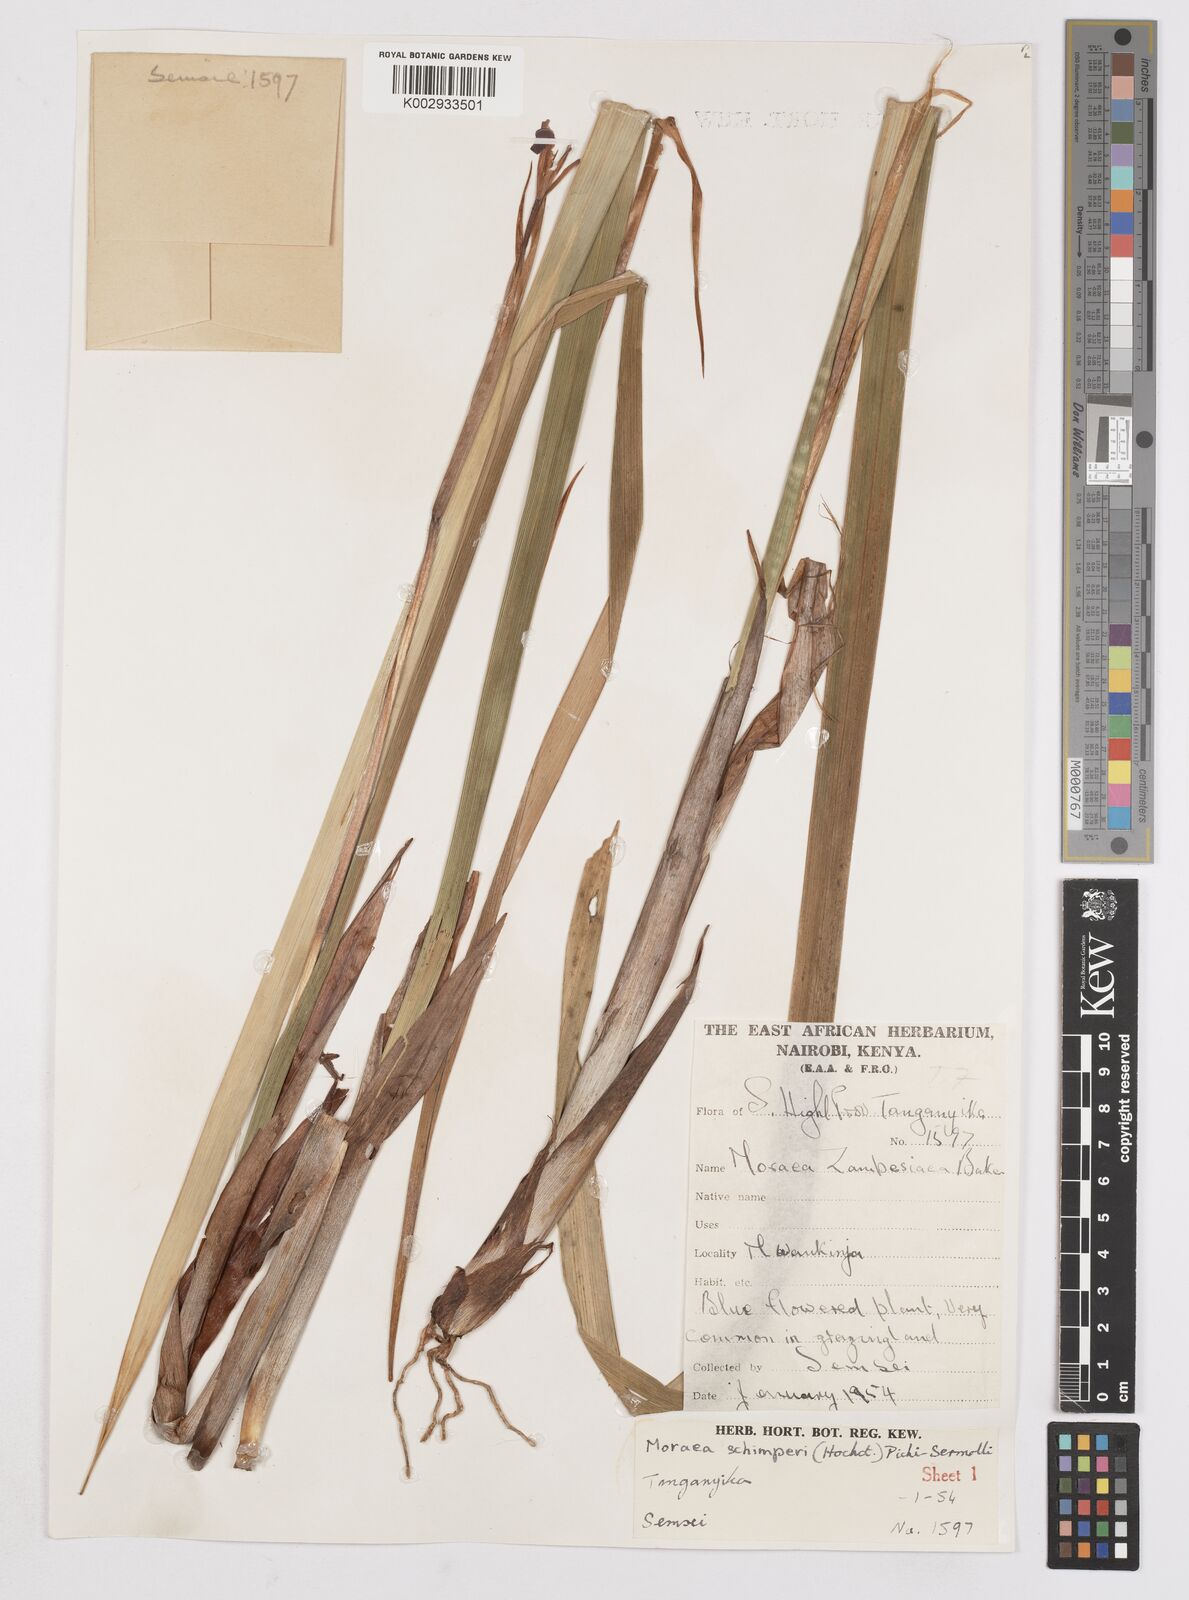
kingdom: Plantae
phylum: Tracheophyta
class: Liliopsida
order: Asparagales
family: Iridaceae
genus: Moraea
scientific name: Moraea schimperi
